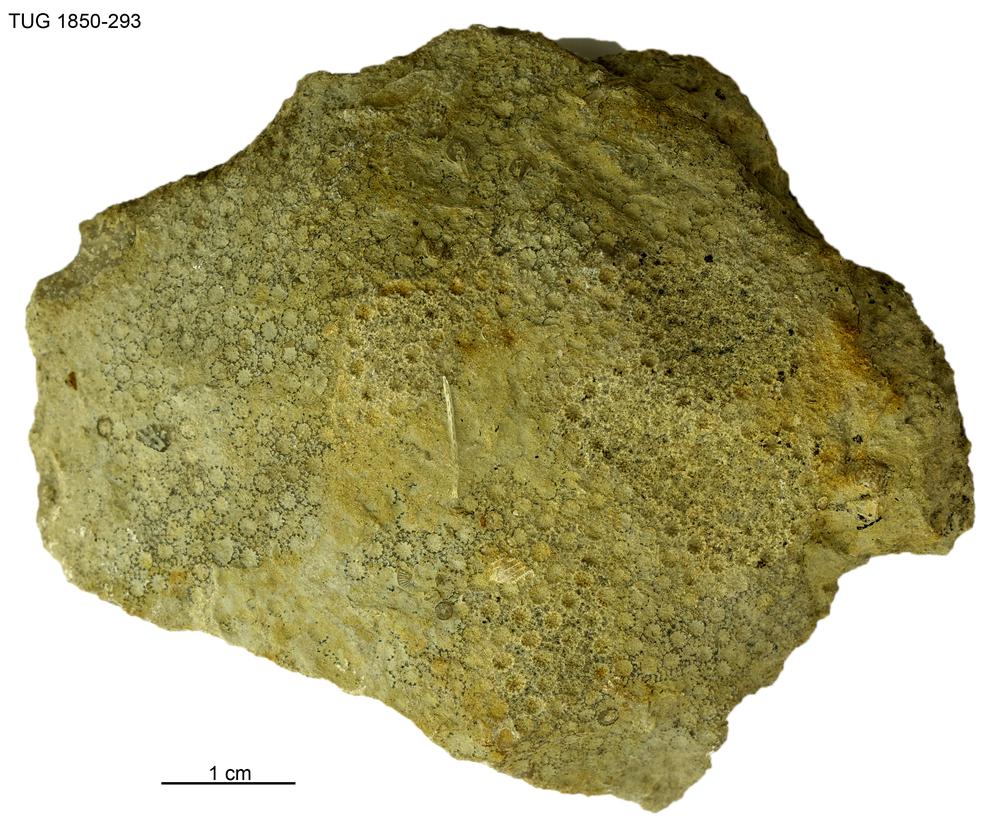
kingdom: Animalia
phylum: Cnidaria
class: Anthozoa
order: Heliolitina
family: Heliolitidae
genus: Heliolites
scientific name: Heliolites
